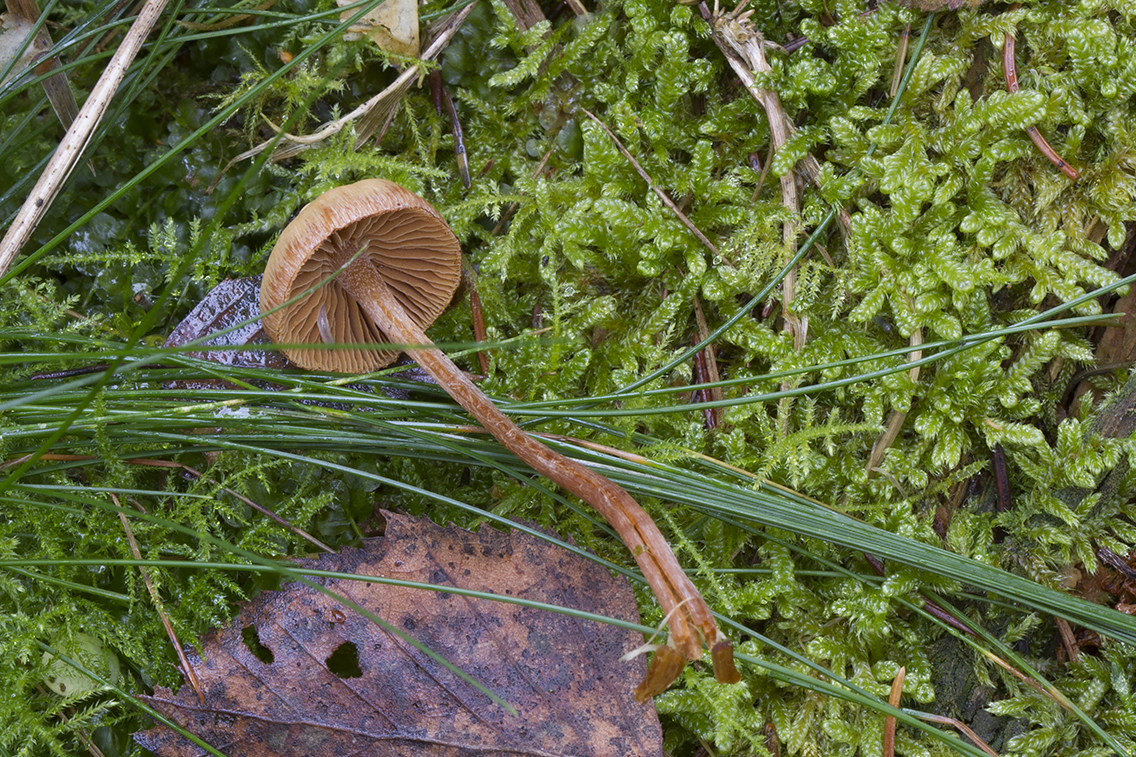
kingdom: Fungi
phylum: Basidiomycota
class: Agaricomycetes
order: Agaricales
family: Hymenogastraceae
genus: Galerina
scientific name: Galerina pumila
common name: honninggul hjelmhat
